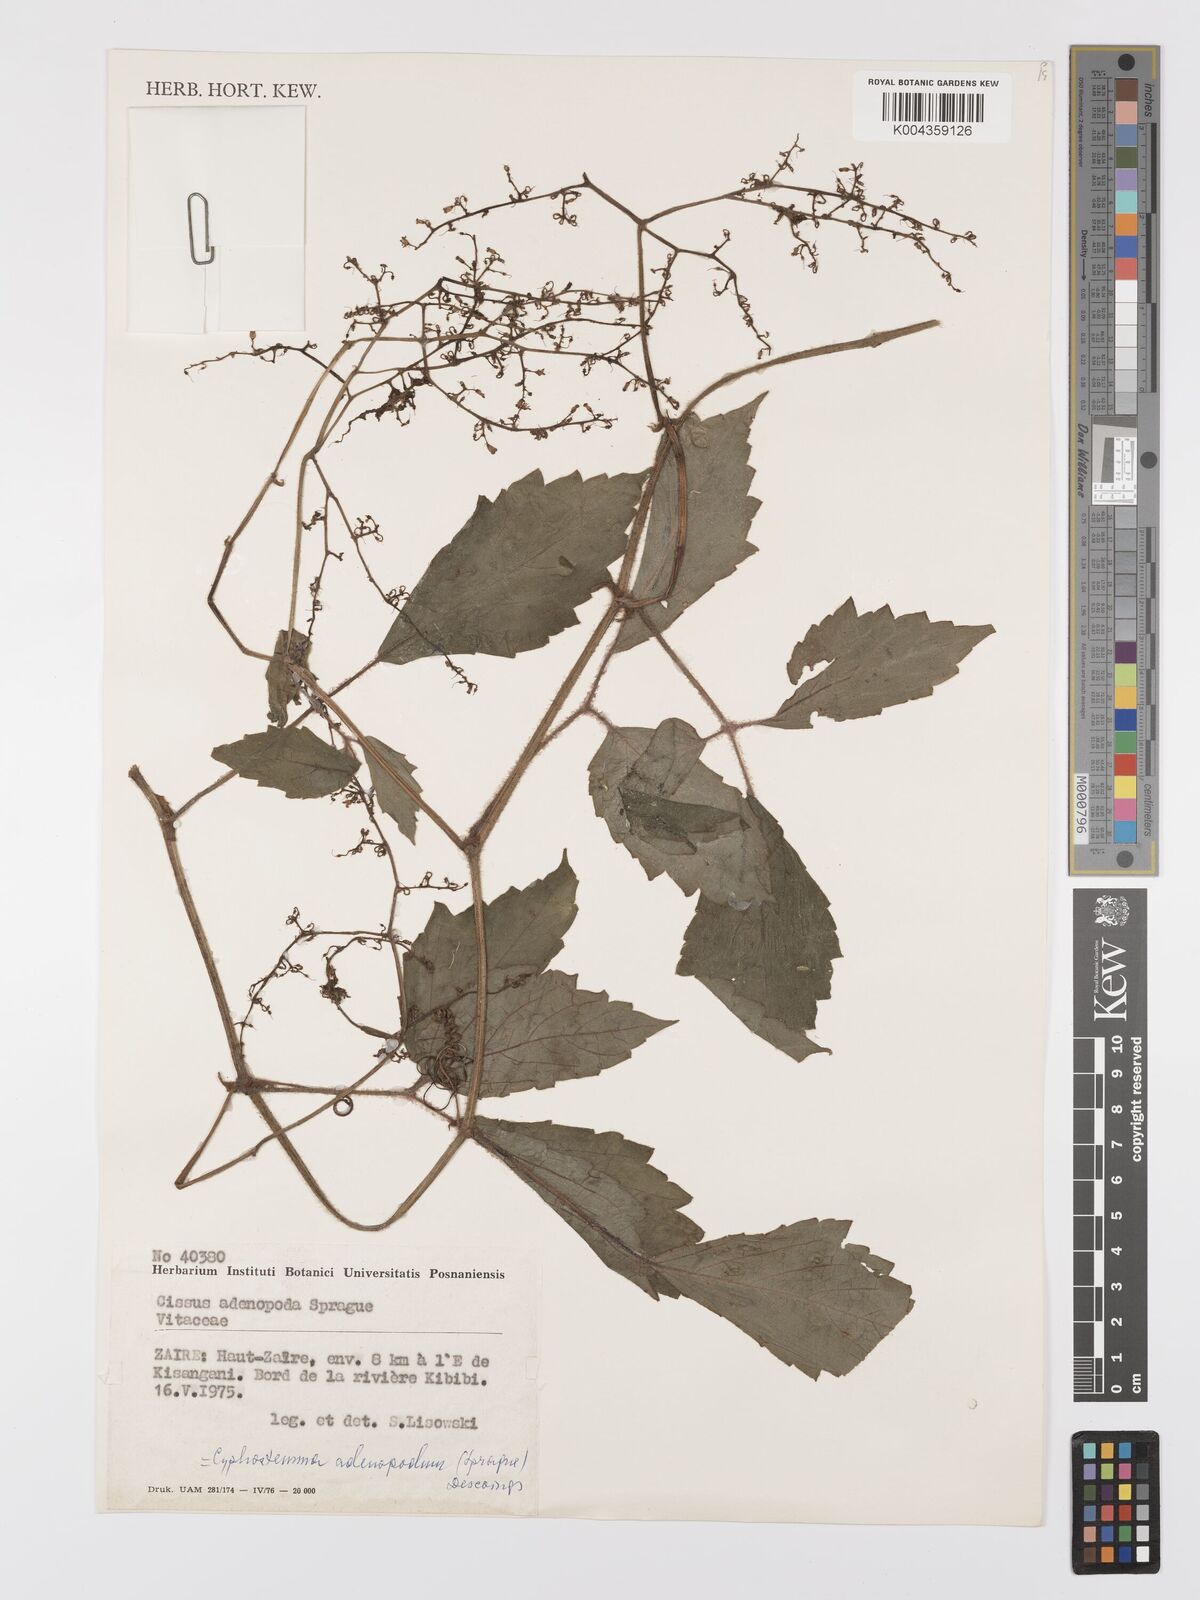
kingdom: Plantae
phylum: Tracheophyta
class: Magnoliopsida
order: Vitales
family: Vitaceae
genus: Cyphostemma
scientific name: Cyphostemma adenopodum
